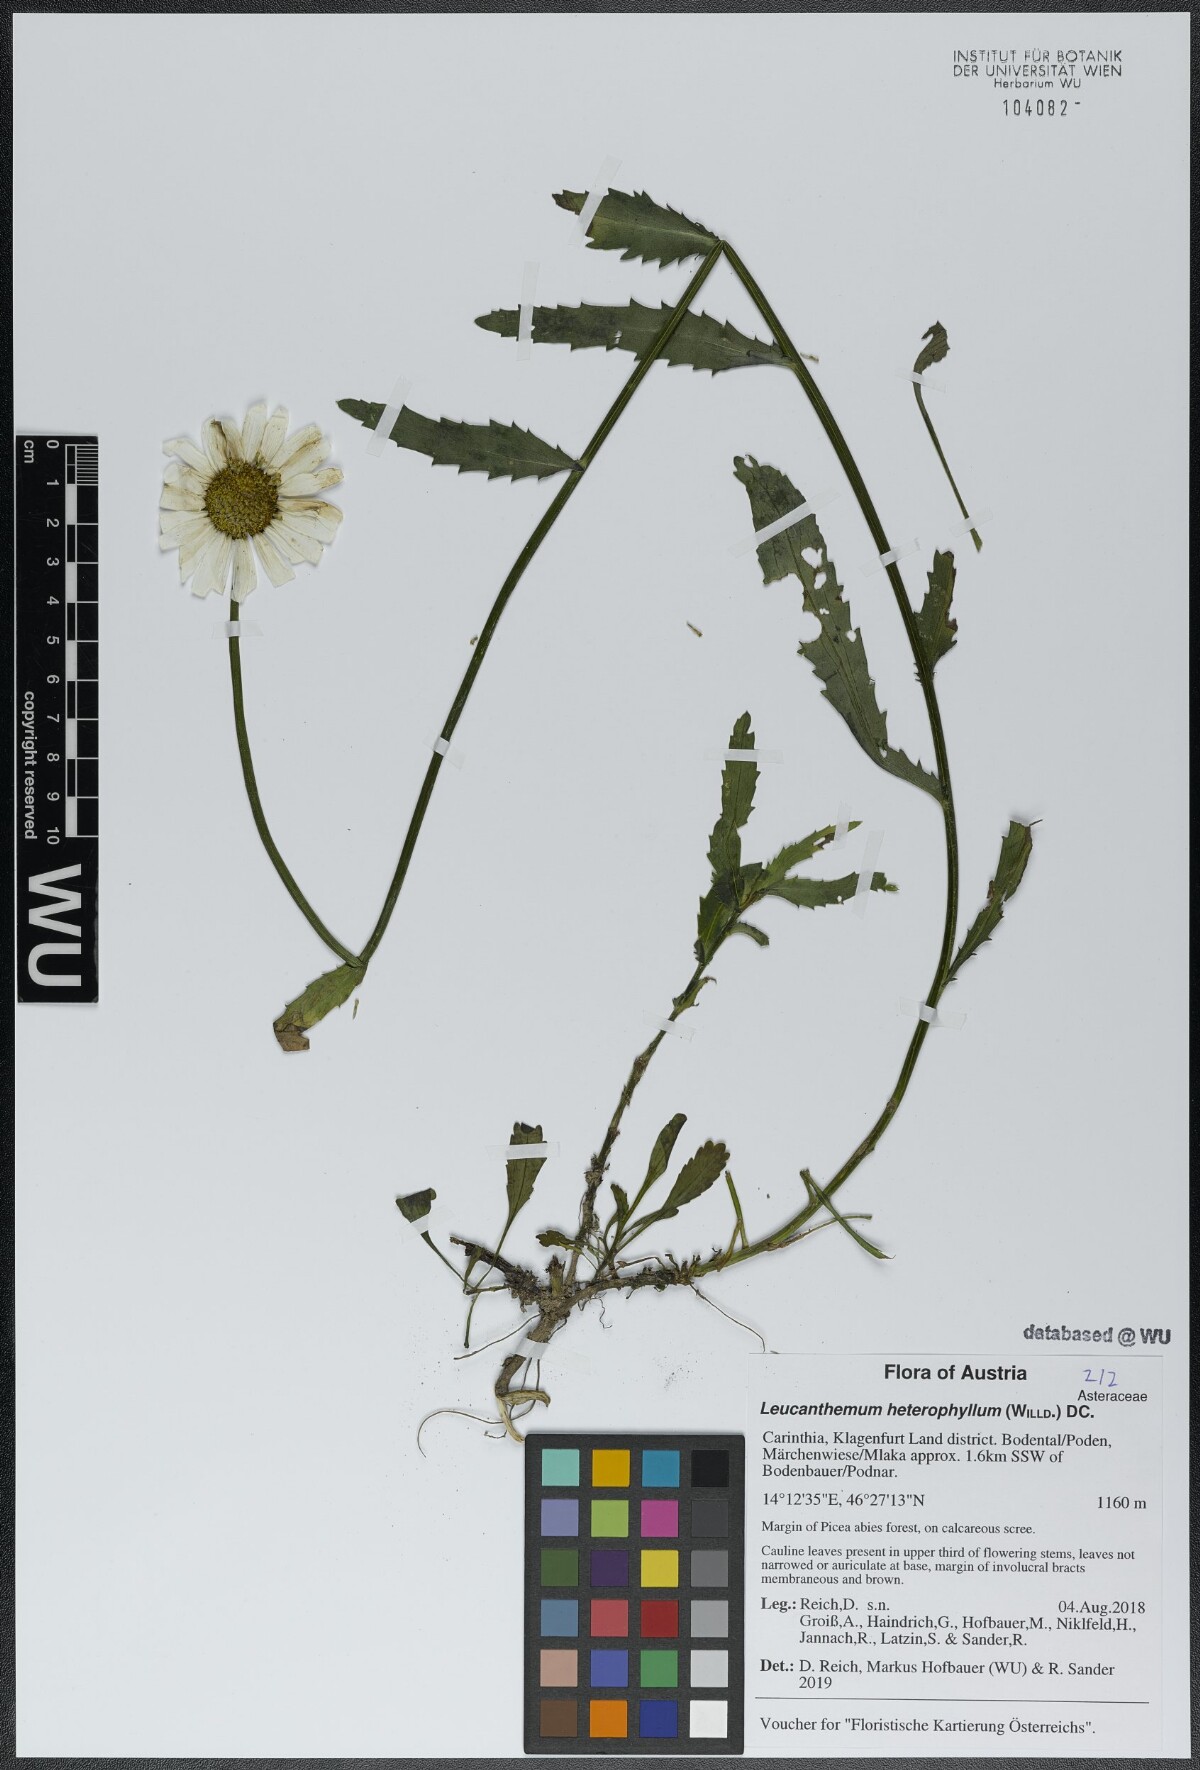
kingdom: Plantae
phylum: Tracheophyta
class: Magnoliopsida
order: Asterales
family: Asteraceae
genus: Leucanthemum
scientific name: Leucanthemum heterophyllum
